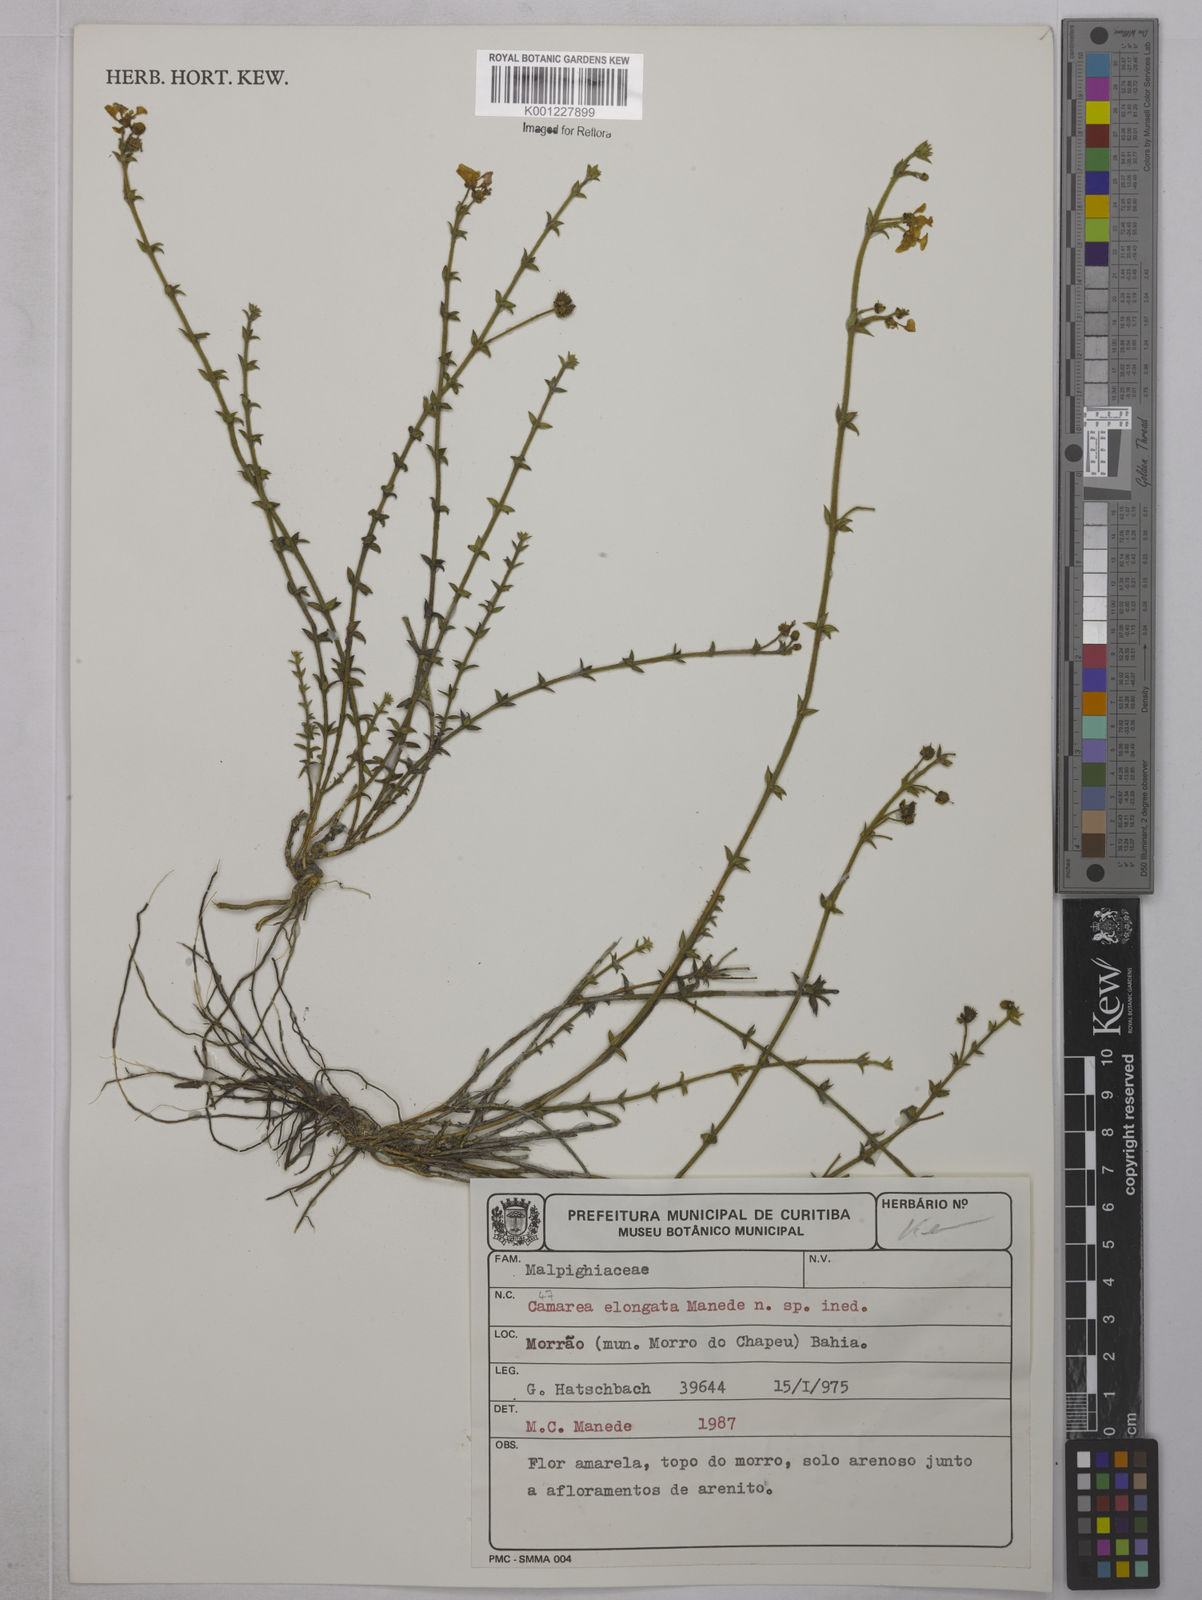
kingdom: Plantae
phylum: Tracheophyta
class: Magnoliopsida
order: Malpighiales
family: Malpighiaceae
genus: Camarea
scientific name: Camarea elongata
